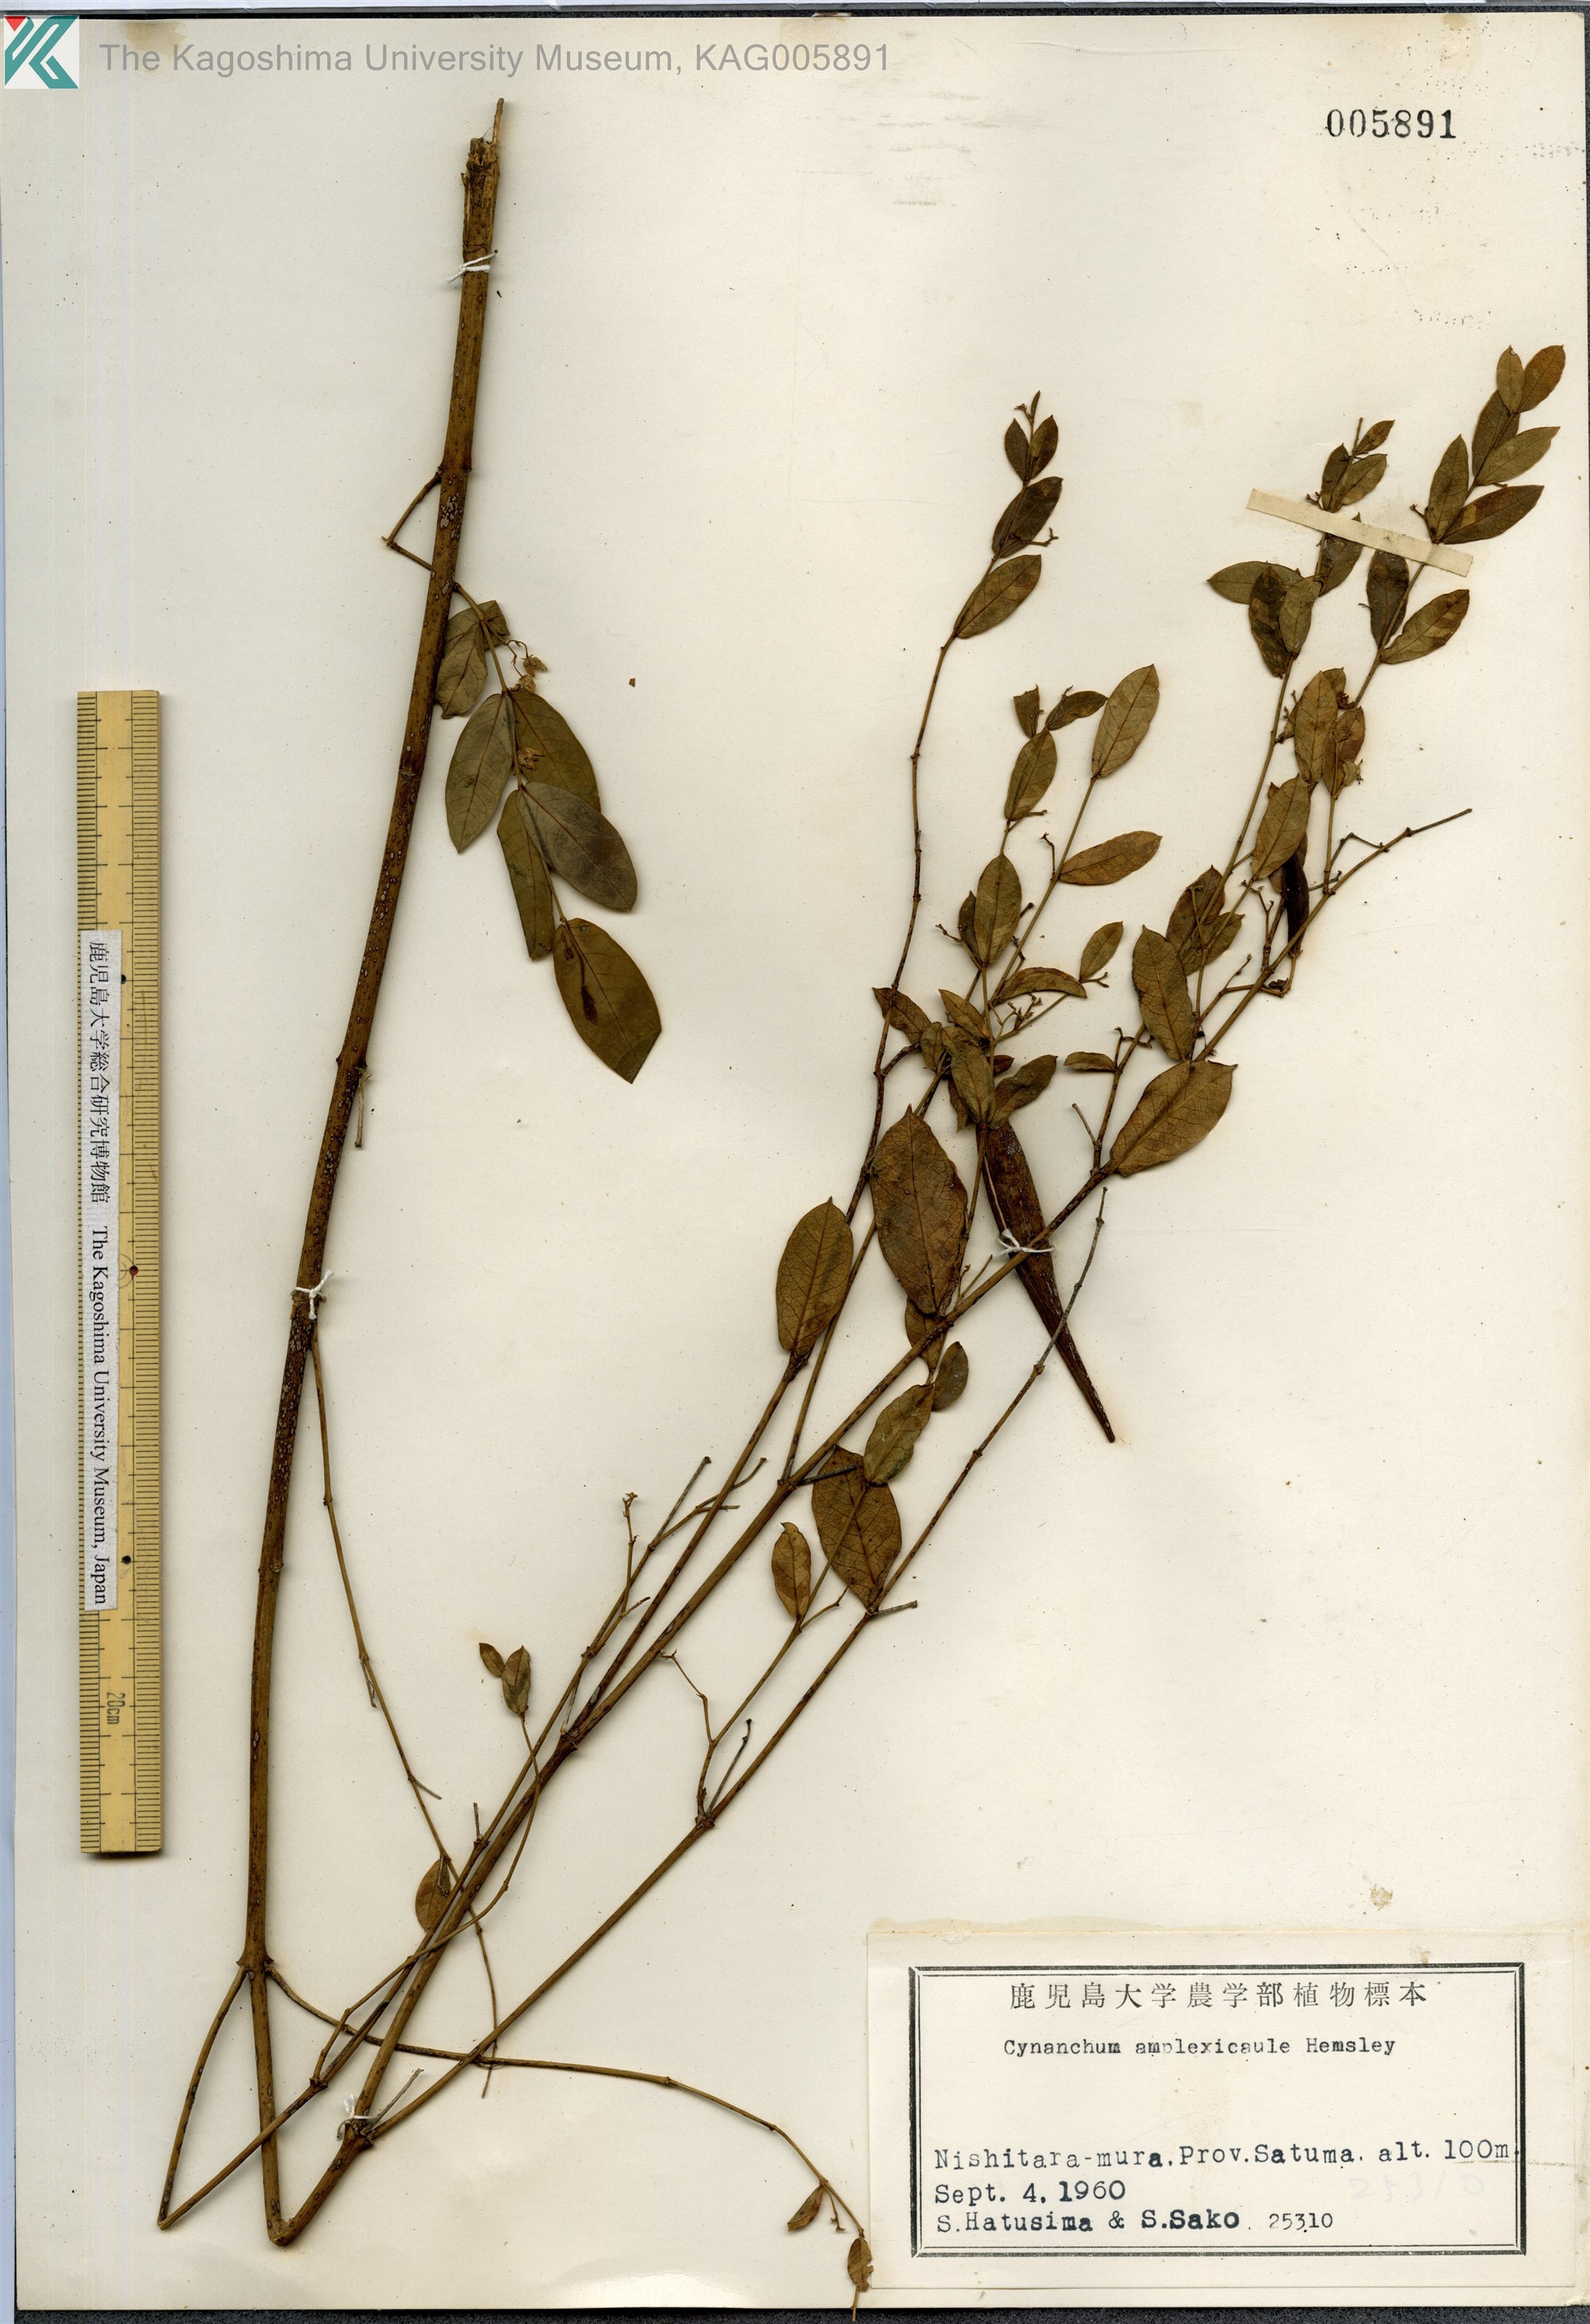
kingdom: Plantae
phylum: Tracheophyta
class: Magnoliopsida
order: Gentianales
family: Apocynaceae
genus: Vincetoxicum
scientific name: Vincetoxicum amplexicaule
